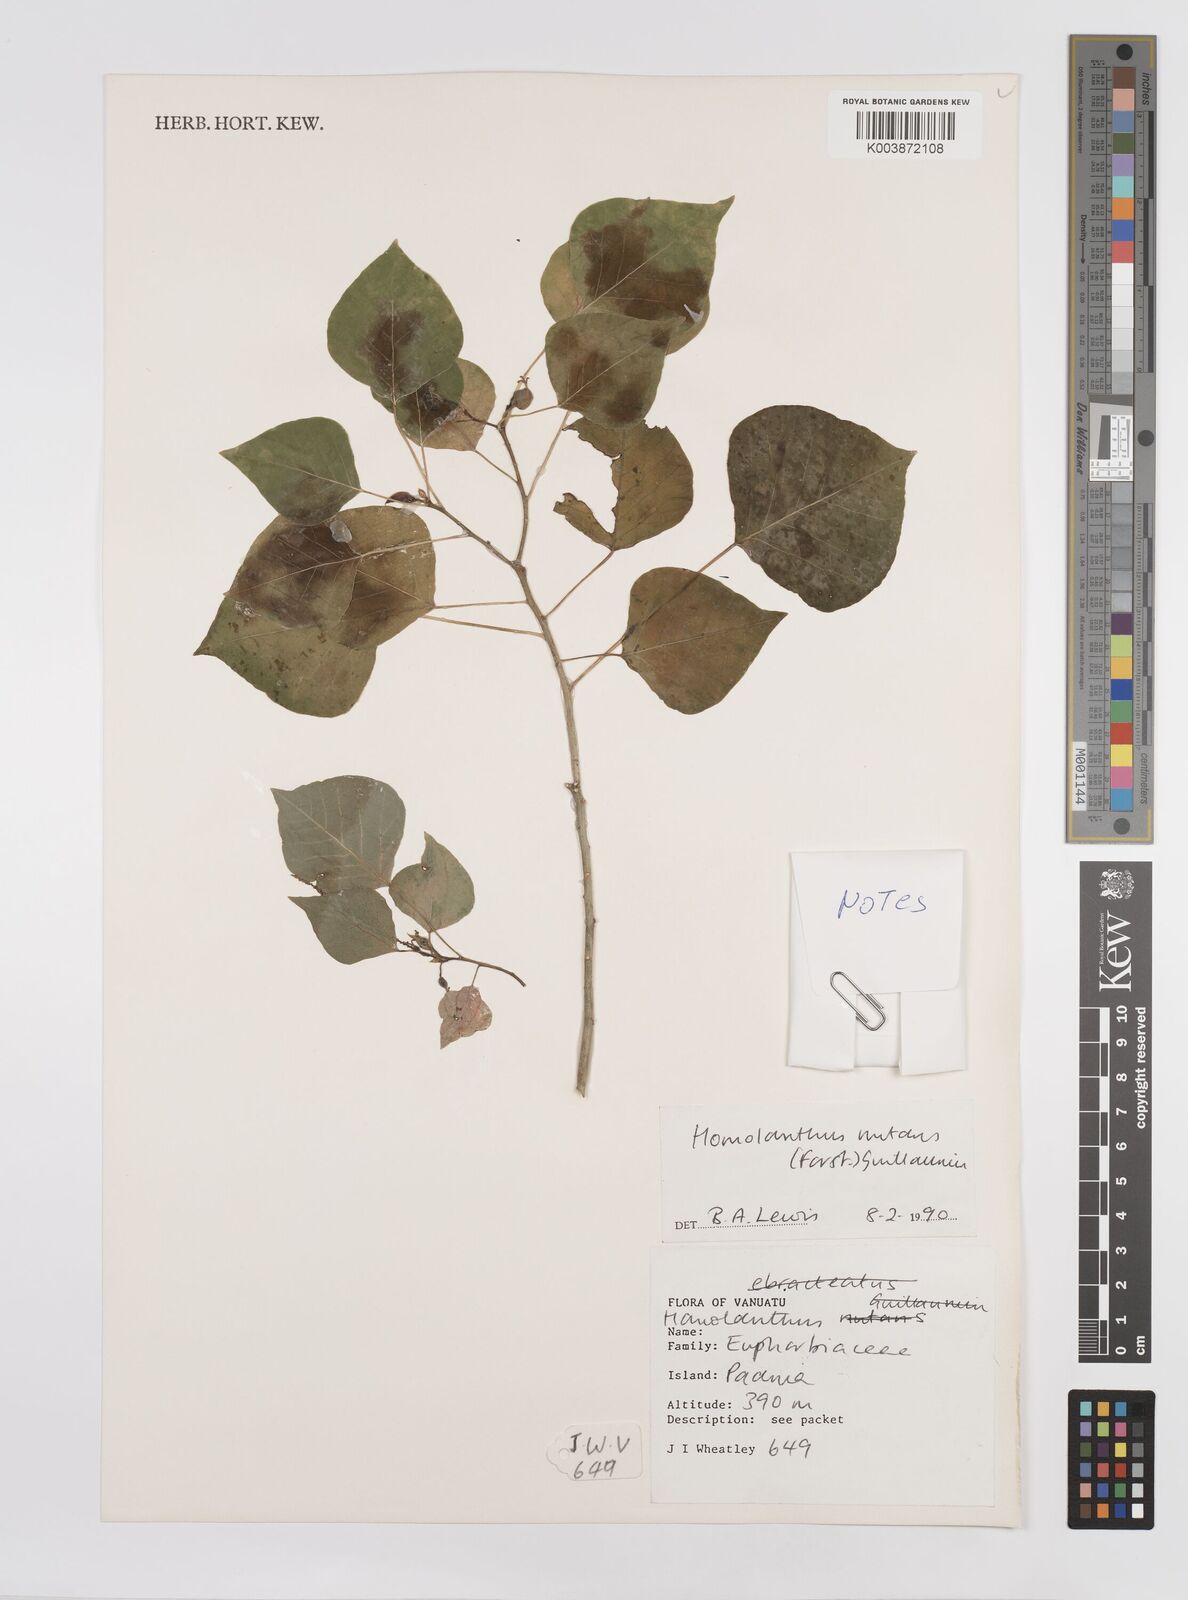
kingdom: Plantae
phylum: Tracheophyta
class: Magnoliopsida
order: Malpighiales
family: Euphorbiaceae
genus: Homalanthus
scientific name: Homalanthus nutans
